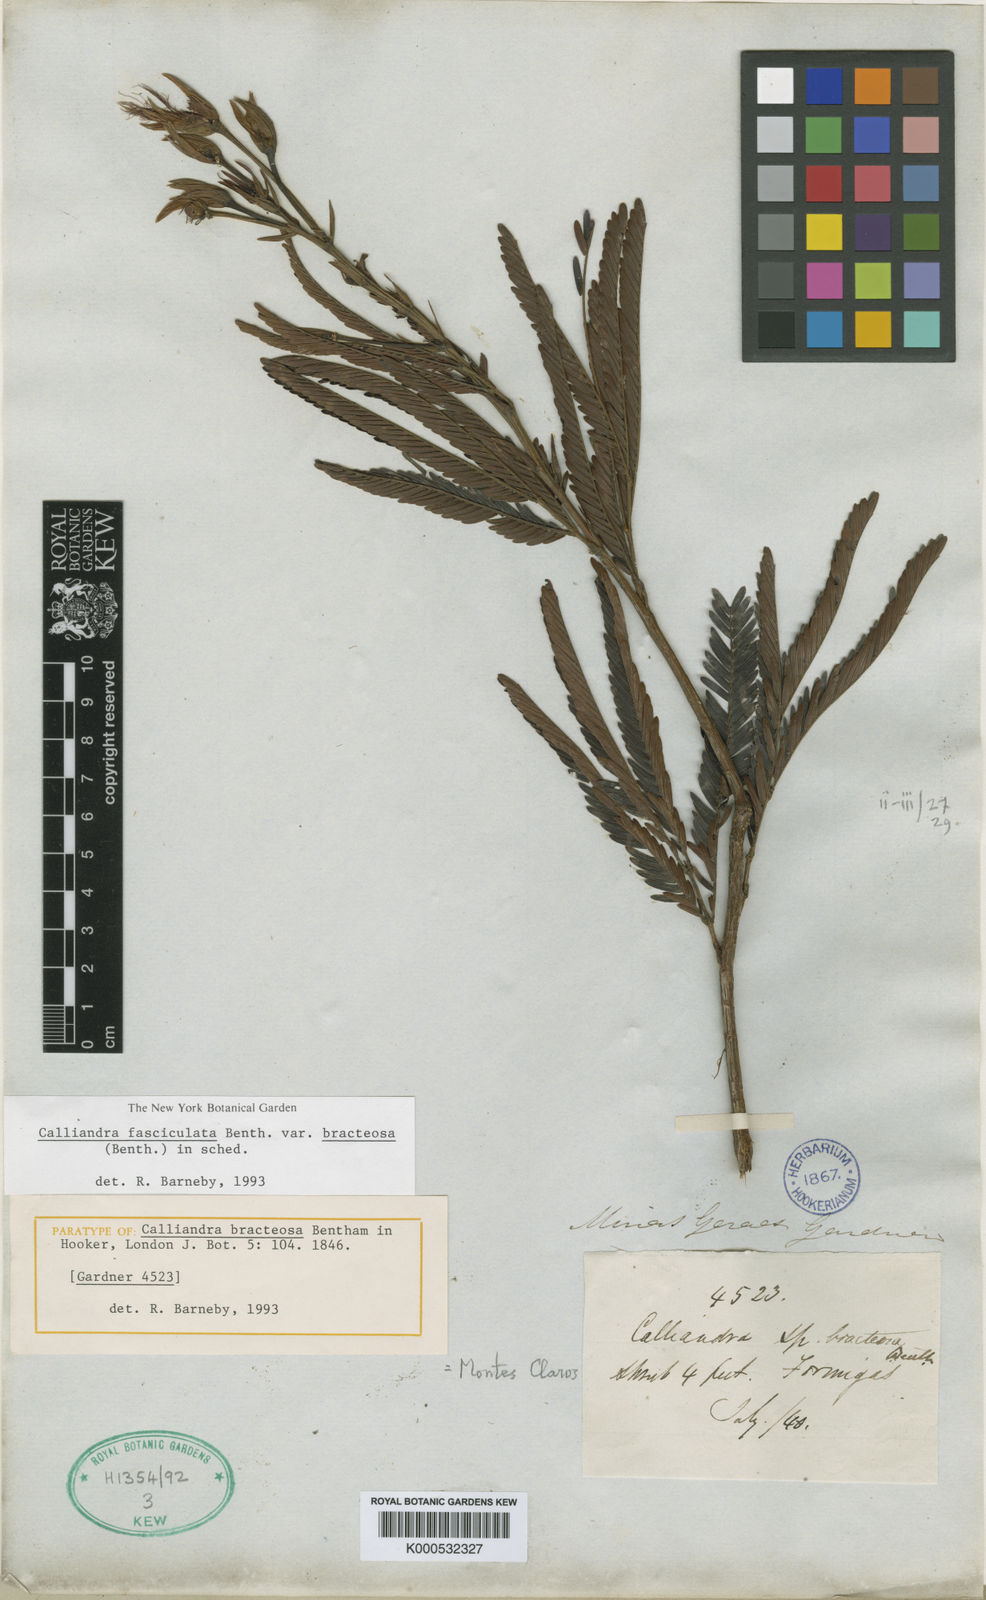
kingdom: Plantae
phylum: Tracheophyta
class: Magnoliopsida
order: Fabales
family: Fabaceae
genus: Calliandra
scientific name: Calliandra fasciculata
